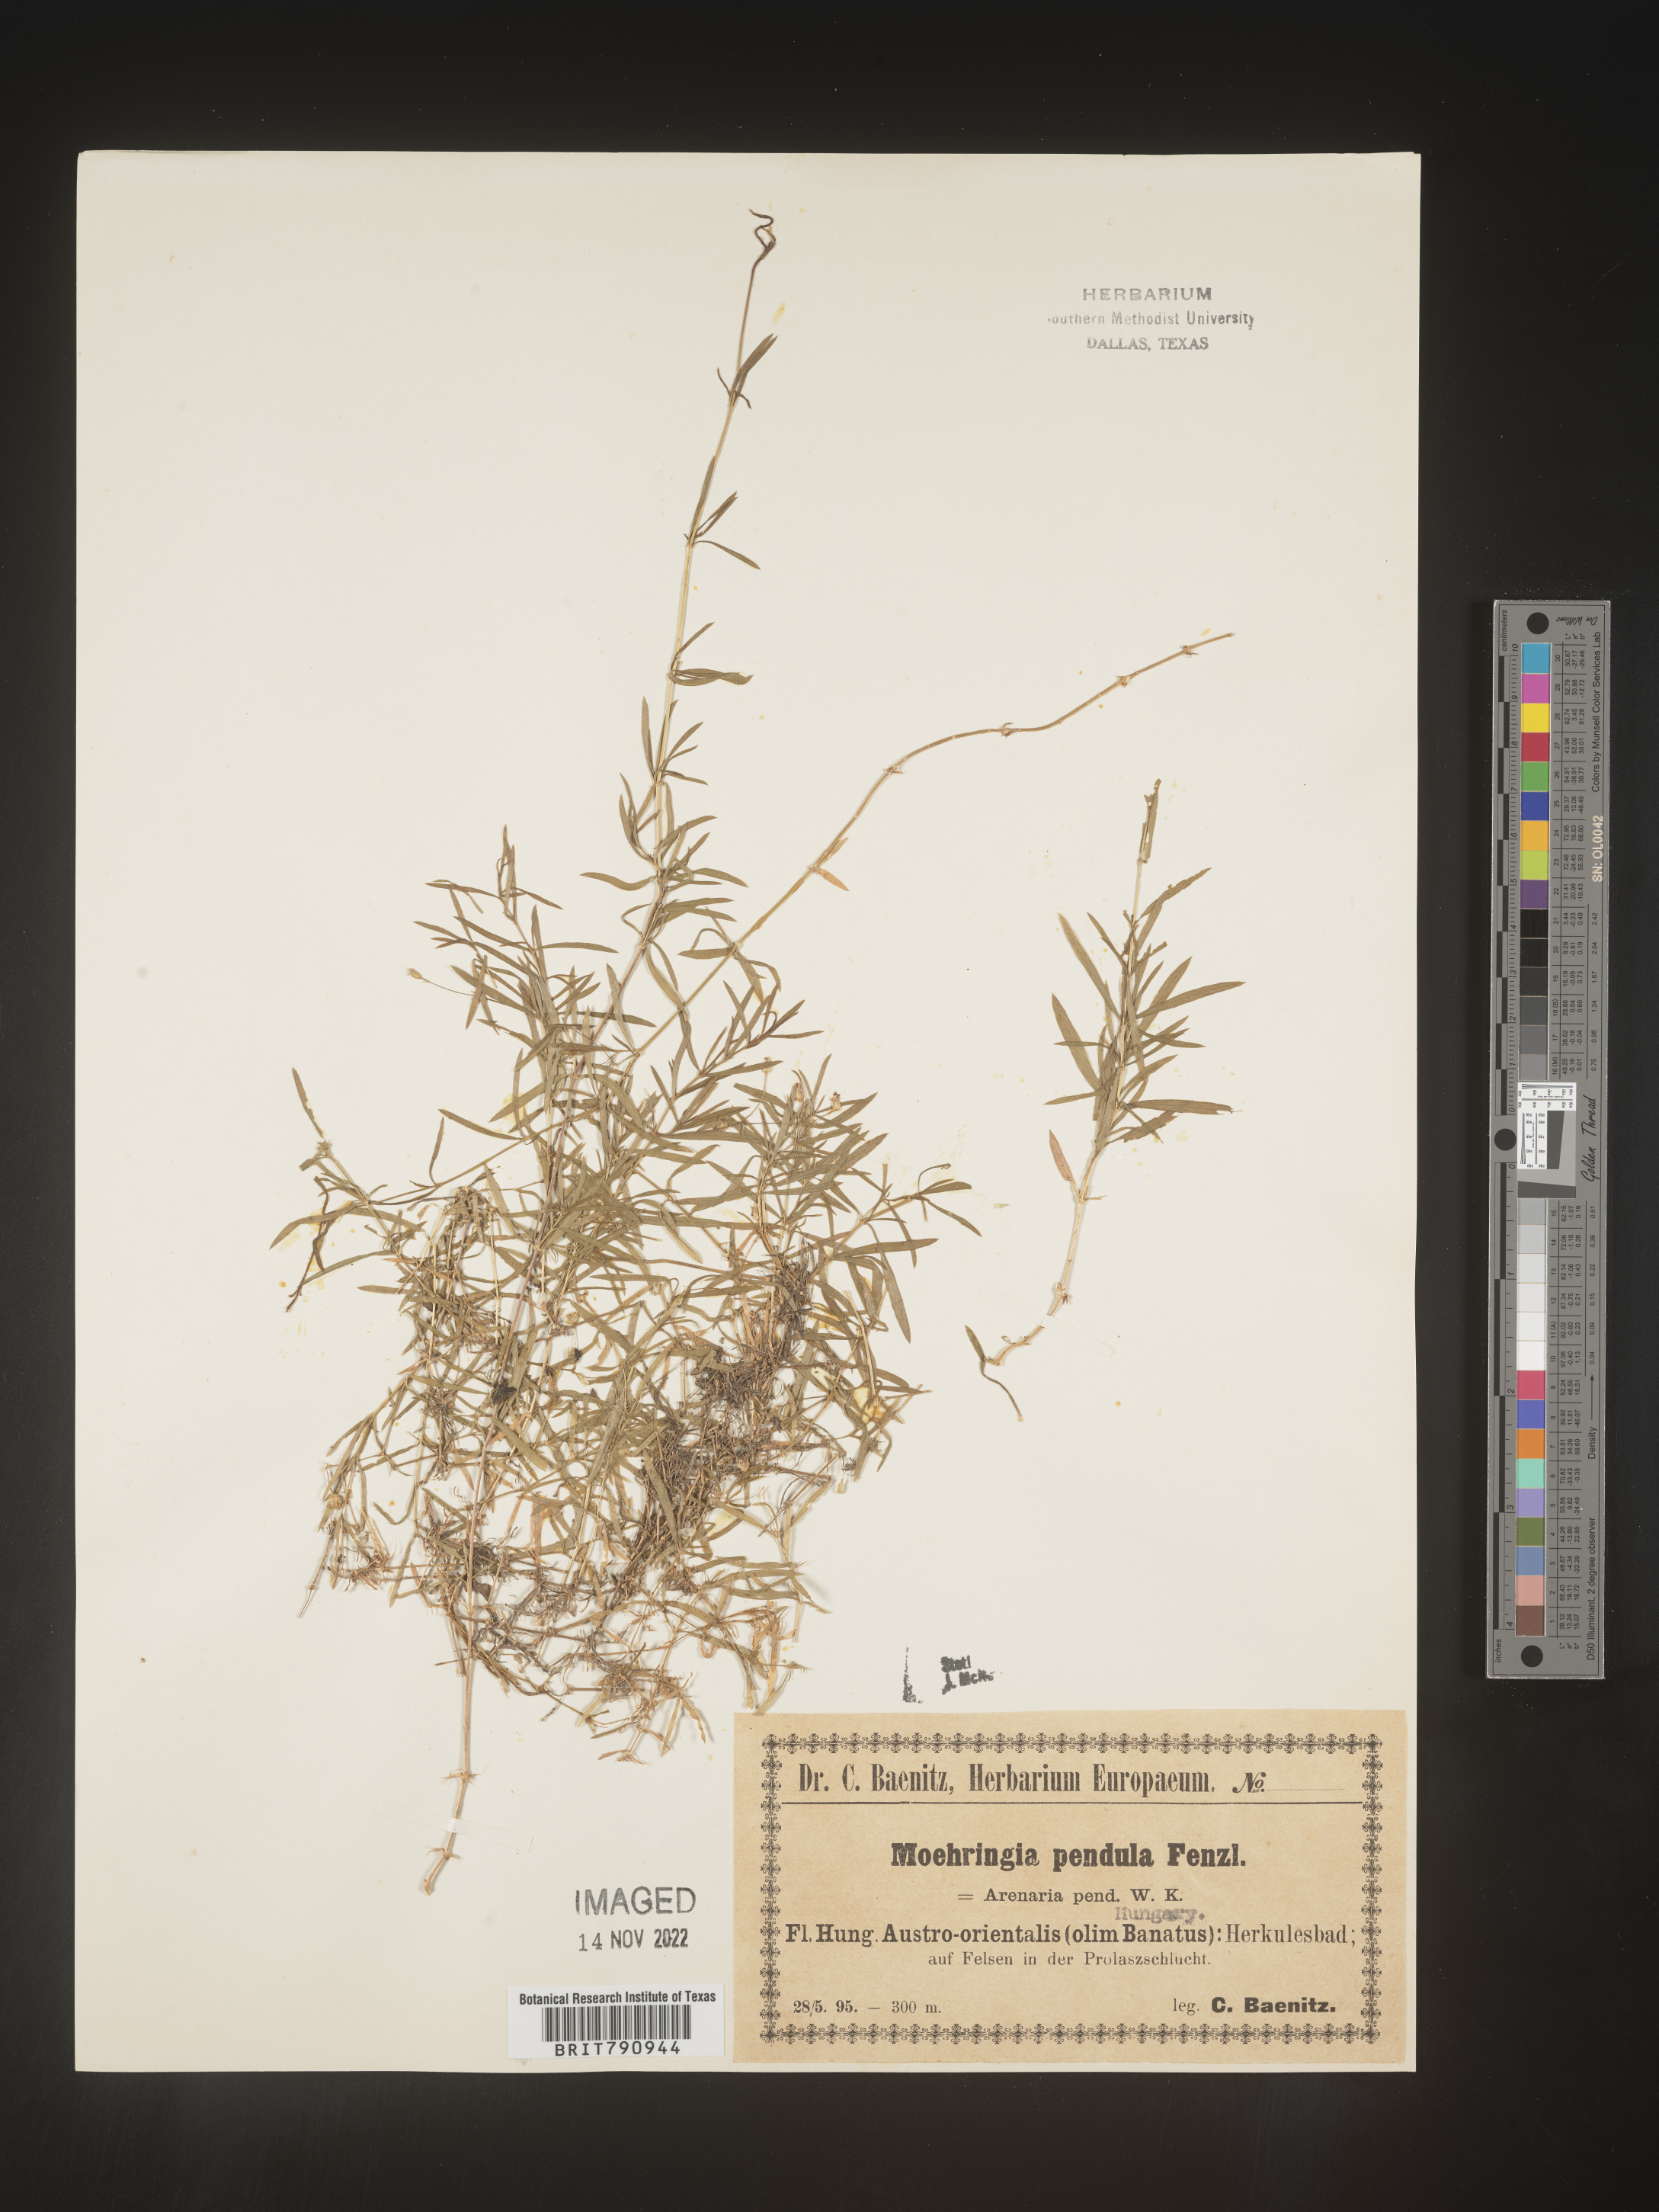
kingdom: Plantae
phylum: Tracheophyta
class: Magnoliopsida
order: Caryophyllales
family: Caryophyllaceae
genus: Moehringia
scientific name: Moehringia
